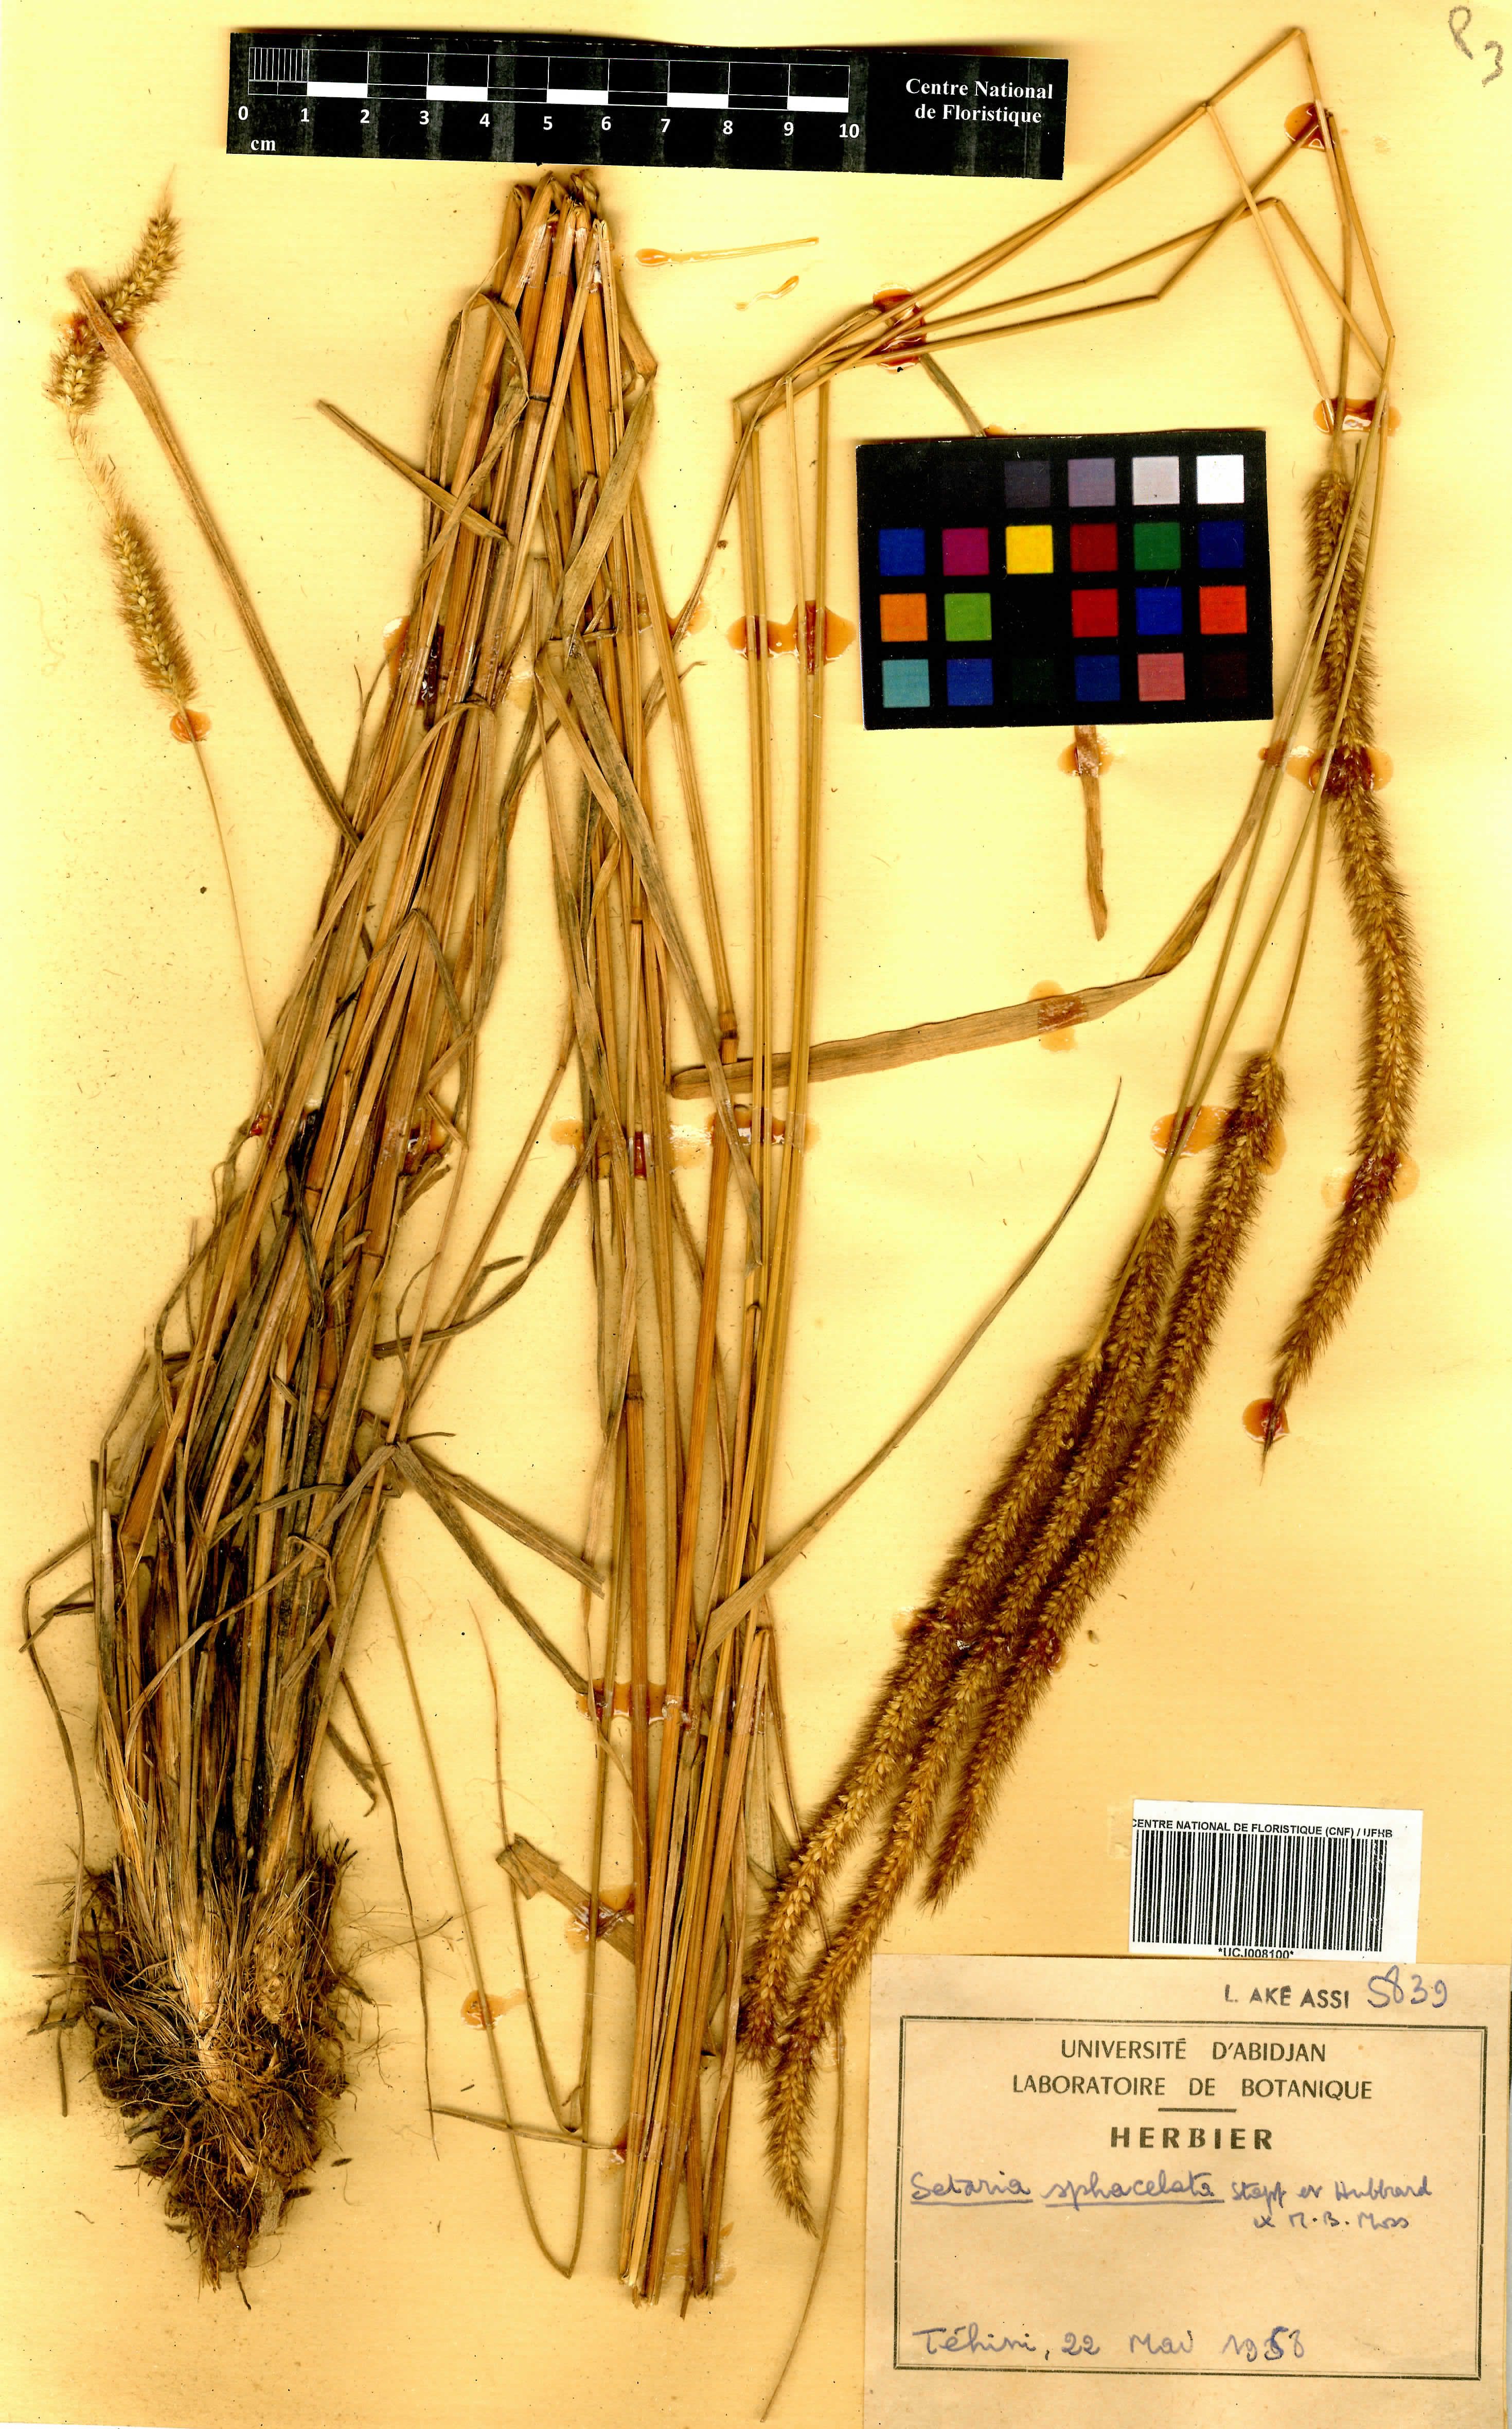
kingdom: Plantae
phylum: Tracheophyta
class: Liliopsida
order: Poales
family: Poaceae
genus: Setaria
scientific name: Setaria sphacelata
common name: African bristlegrass
